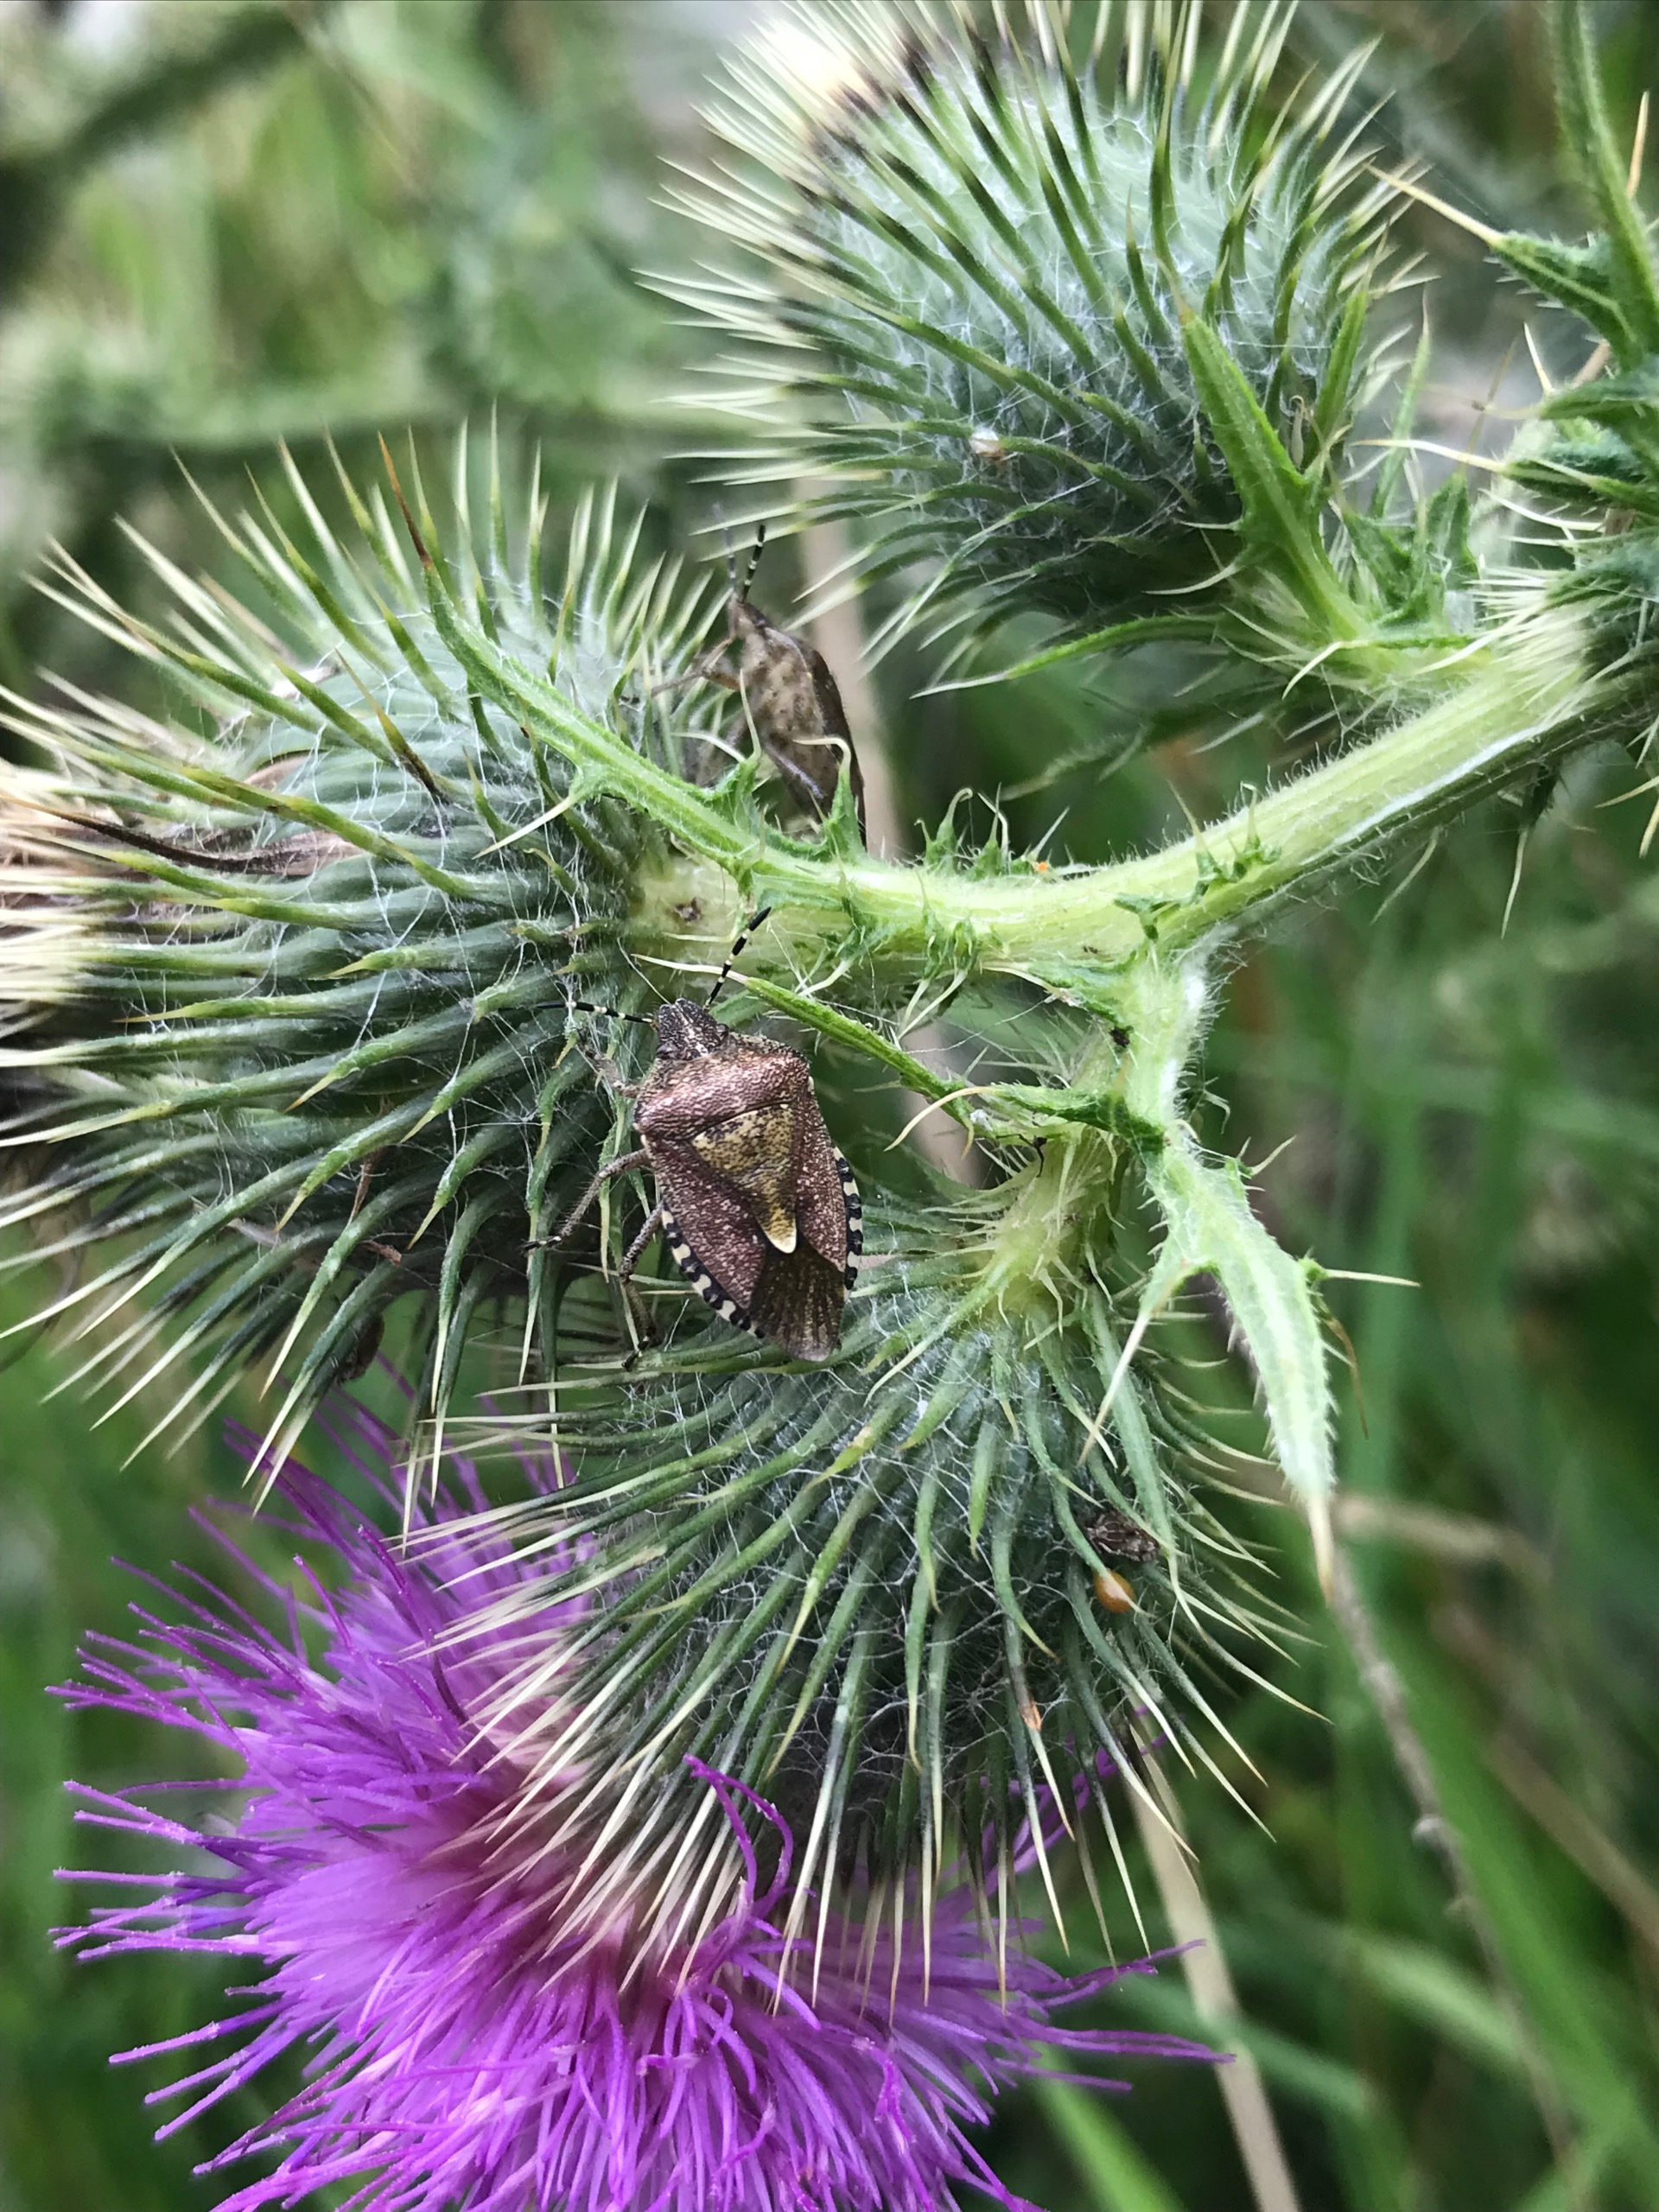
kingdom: Animalia
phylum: Arthropoda
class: Insecta
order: Hemiptera
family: Pentatomidae
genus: Dolycoris
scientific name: Dolycoris baccarum
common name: Almindelig bærtæge
